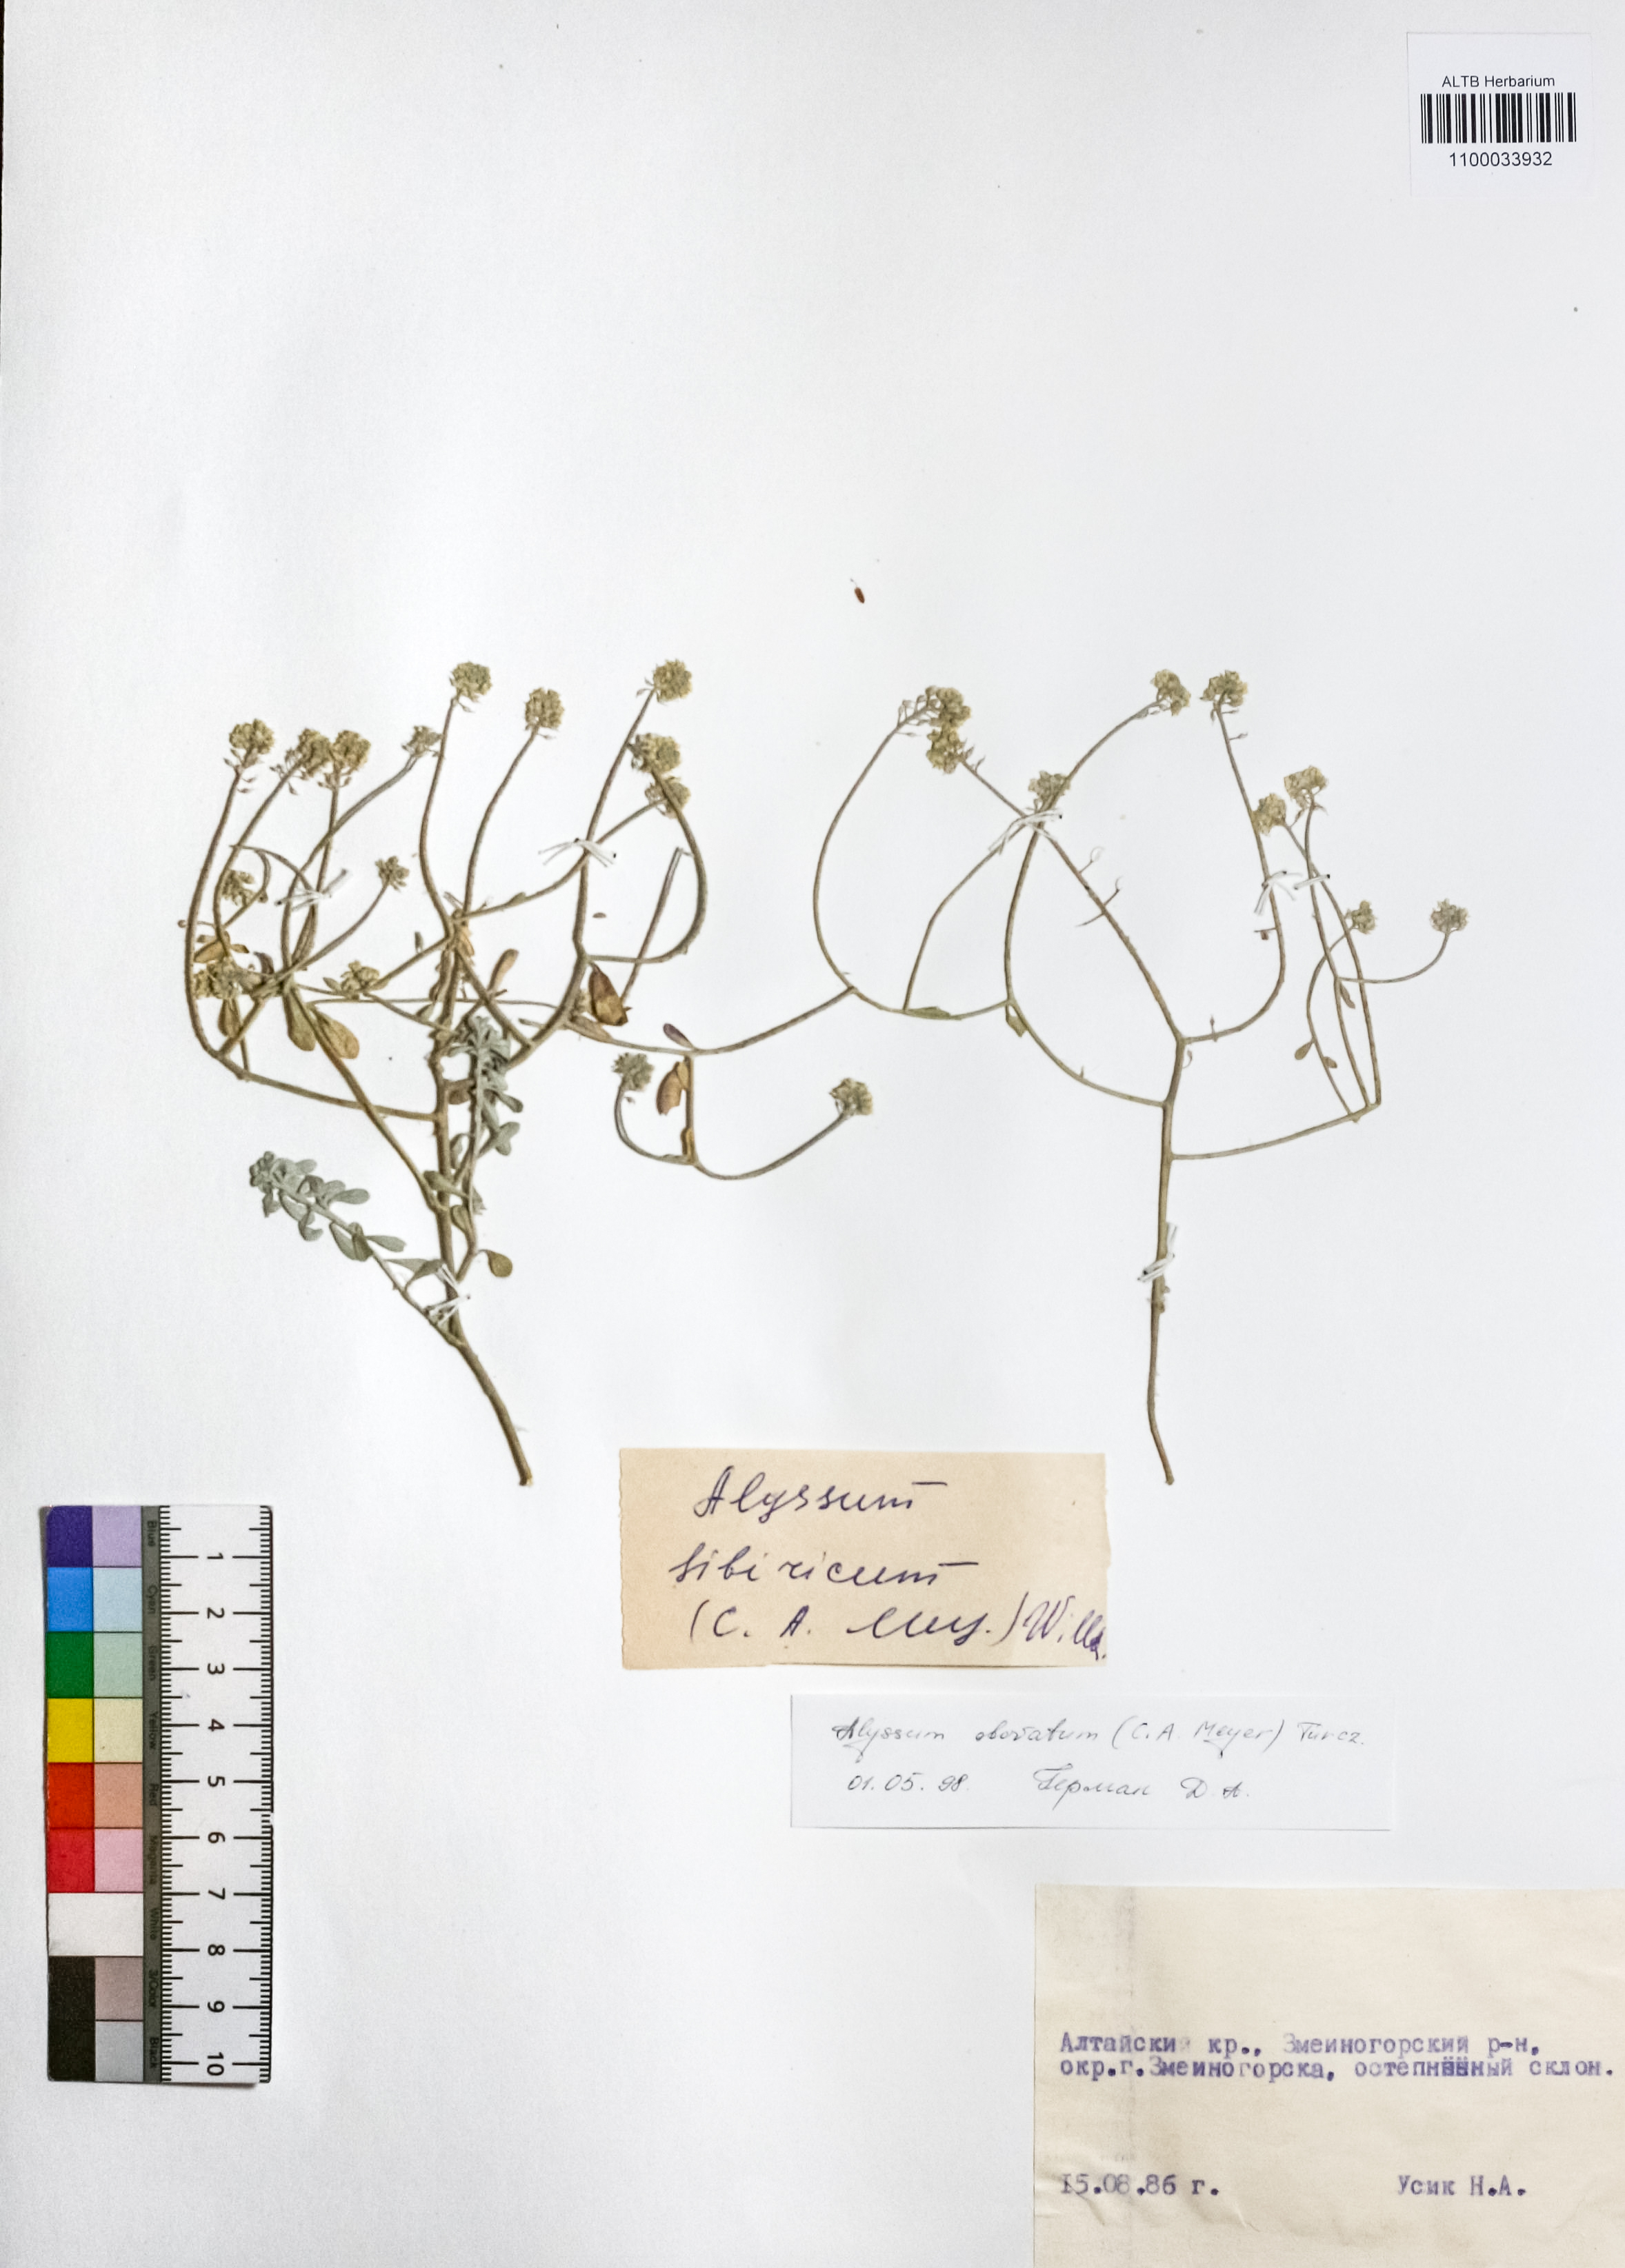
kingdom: Plantae
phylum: Tracheophyta
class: Magnoliopsida
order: Brassicales
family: Brassicaceae
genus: Odontarrhena
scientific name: Odontarrhena obovata
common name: American alyssum
